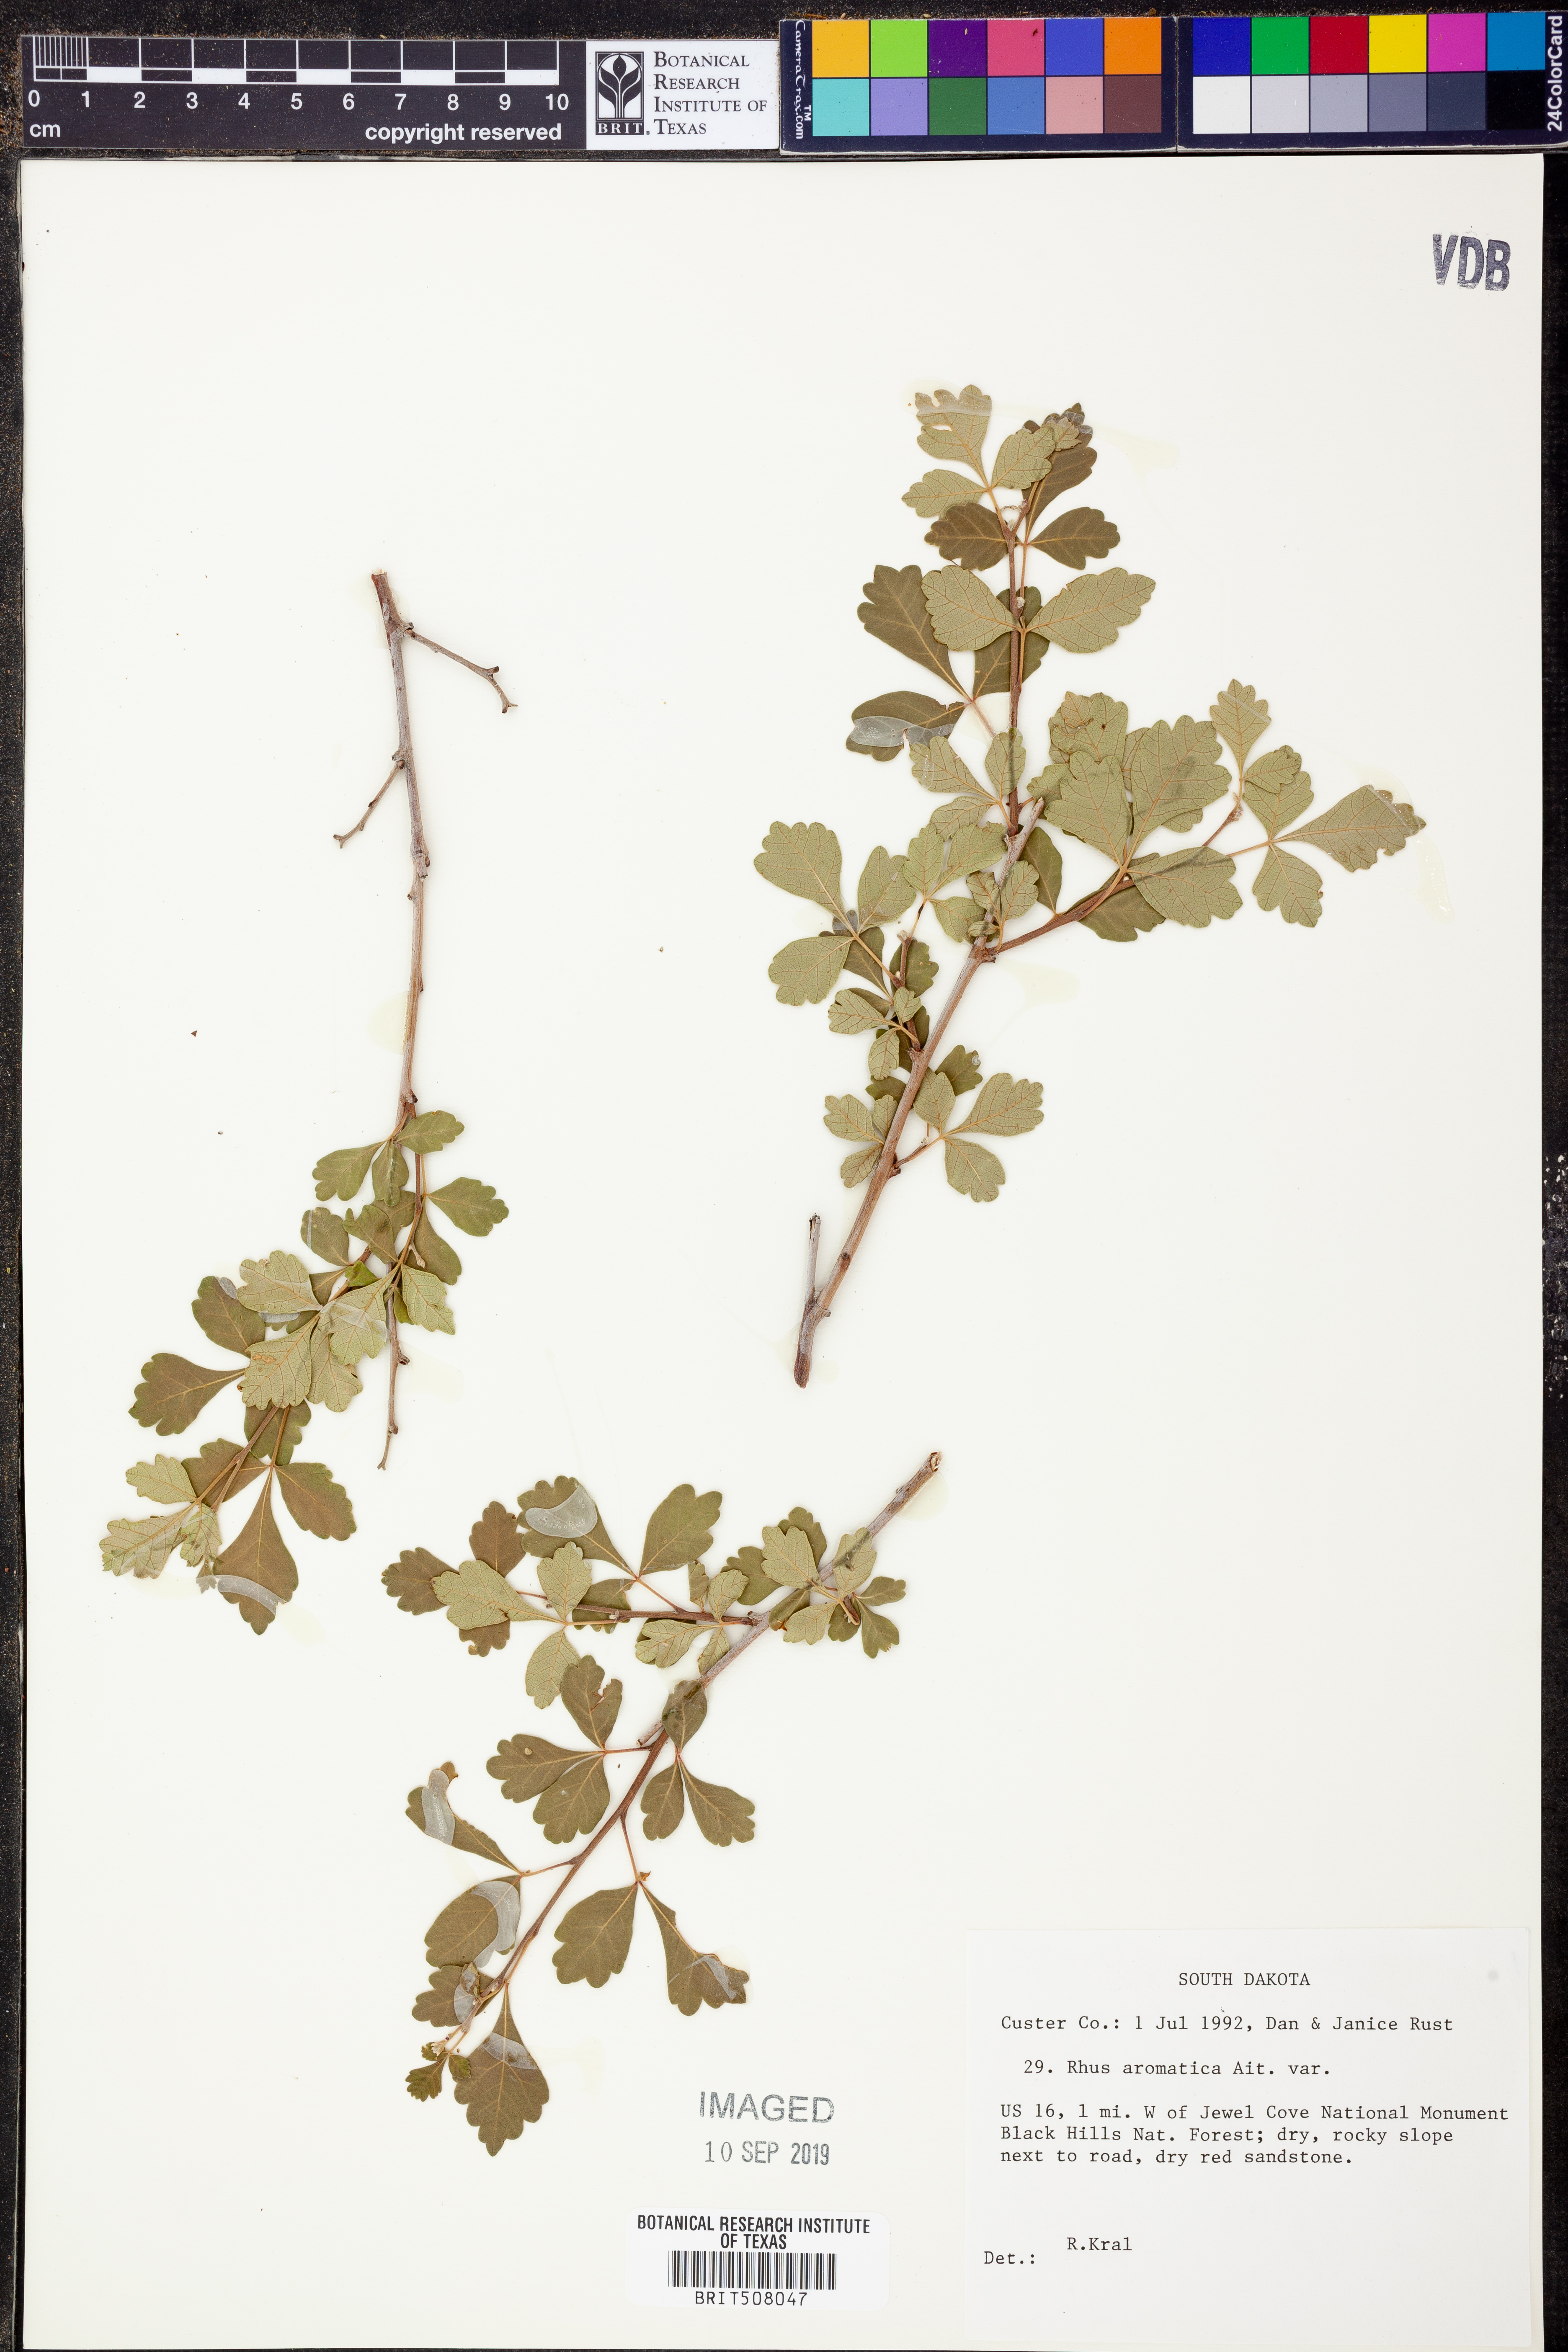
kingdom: Plantae
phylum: Tracheophyta
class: Magnoliopsida
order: Sapindales
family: Anacardiaceae
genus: Rhus
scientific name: Rhus aromatica
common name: Aromatic sumac
